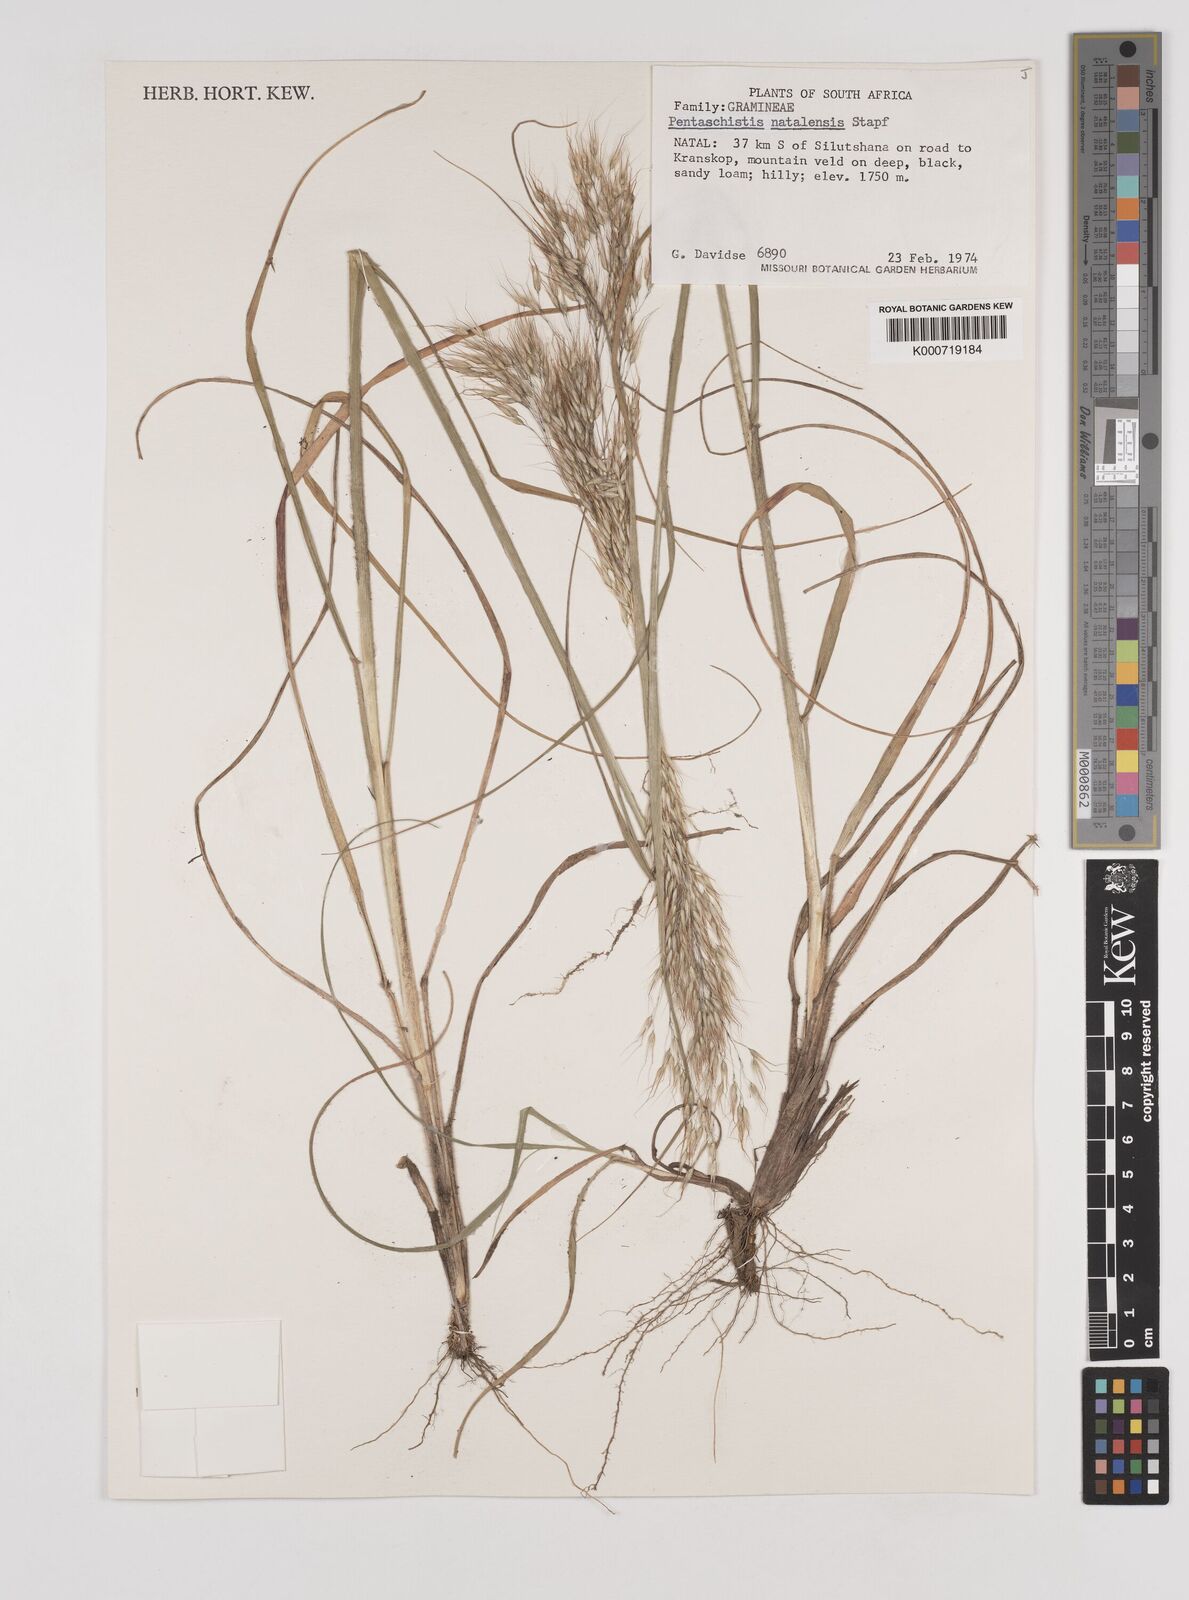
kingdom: Plantae
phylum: Tracheophyta
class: Liliopsida
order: Poales
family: Poaceae
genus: Pentameris
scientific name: Pentameris natalensis
